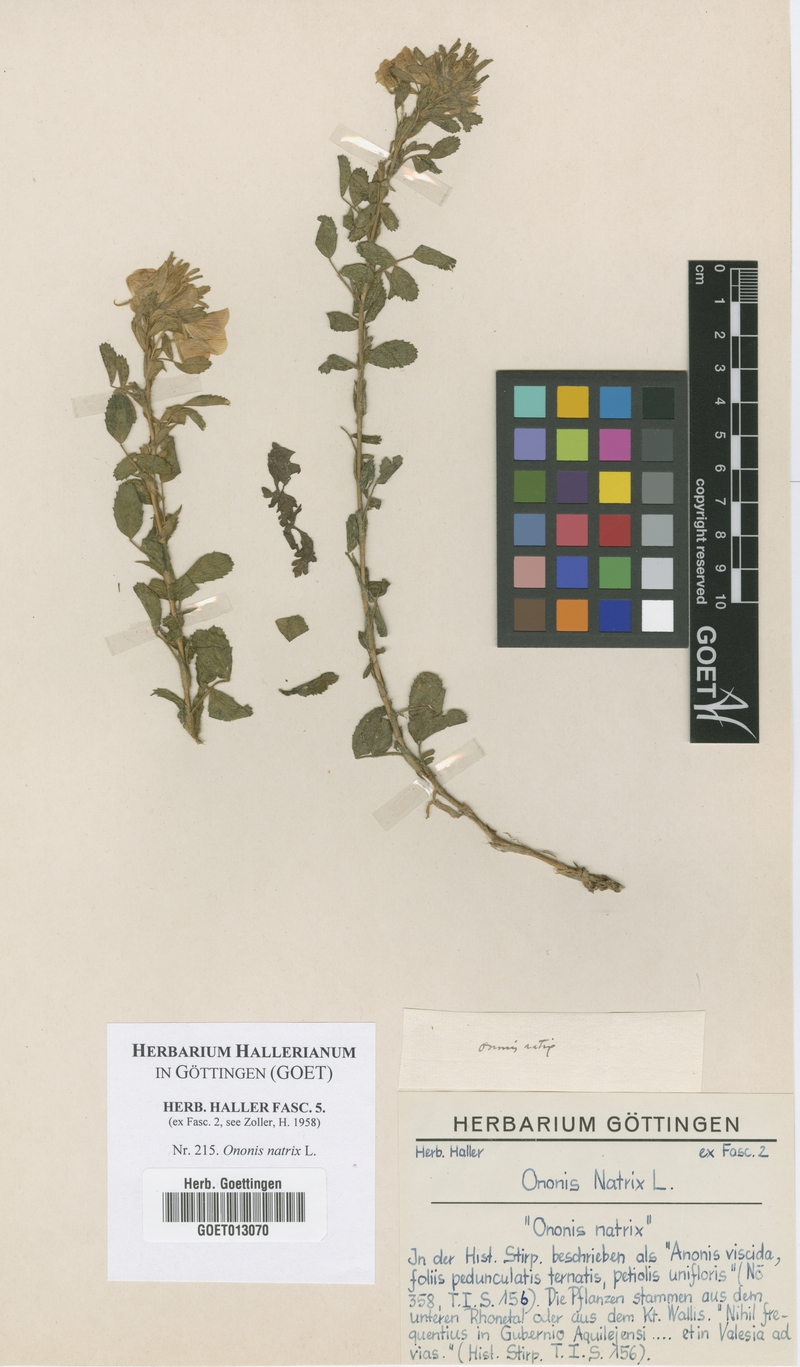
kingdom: Plantae
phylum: Tracheophyta
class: Magnoliopsida
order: Fabales
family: Fabaceae
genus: Ononis
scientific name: Ononis natrix
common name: Yellow restharrow
